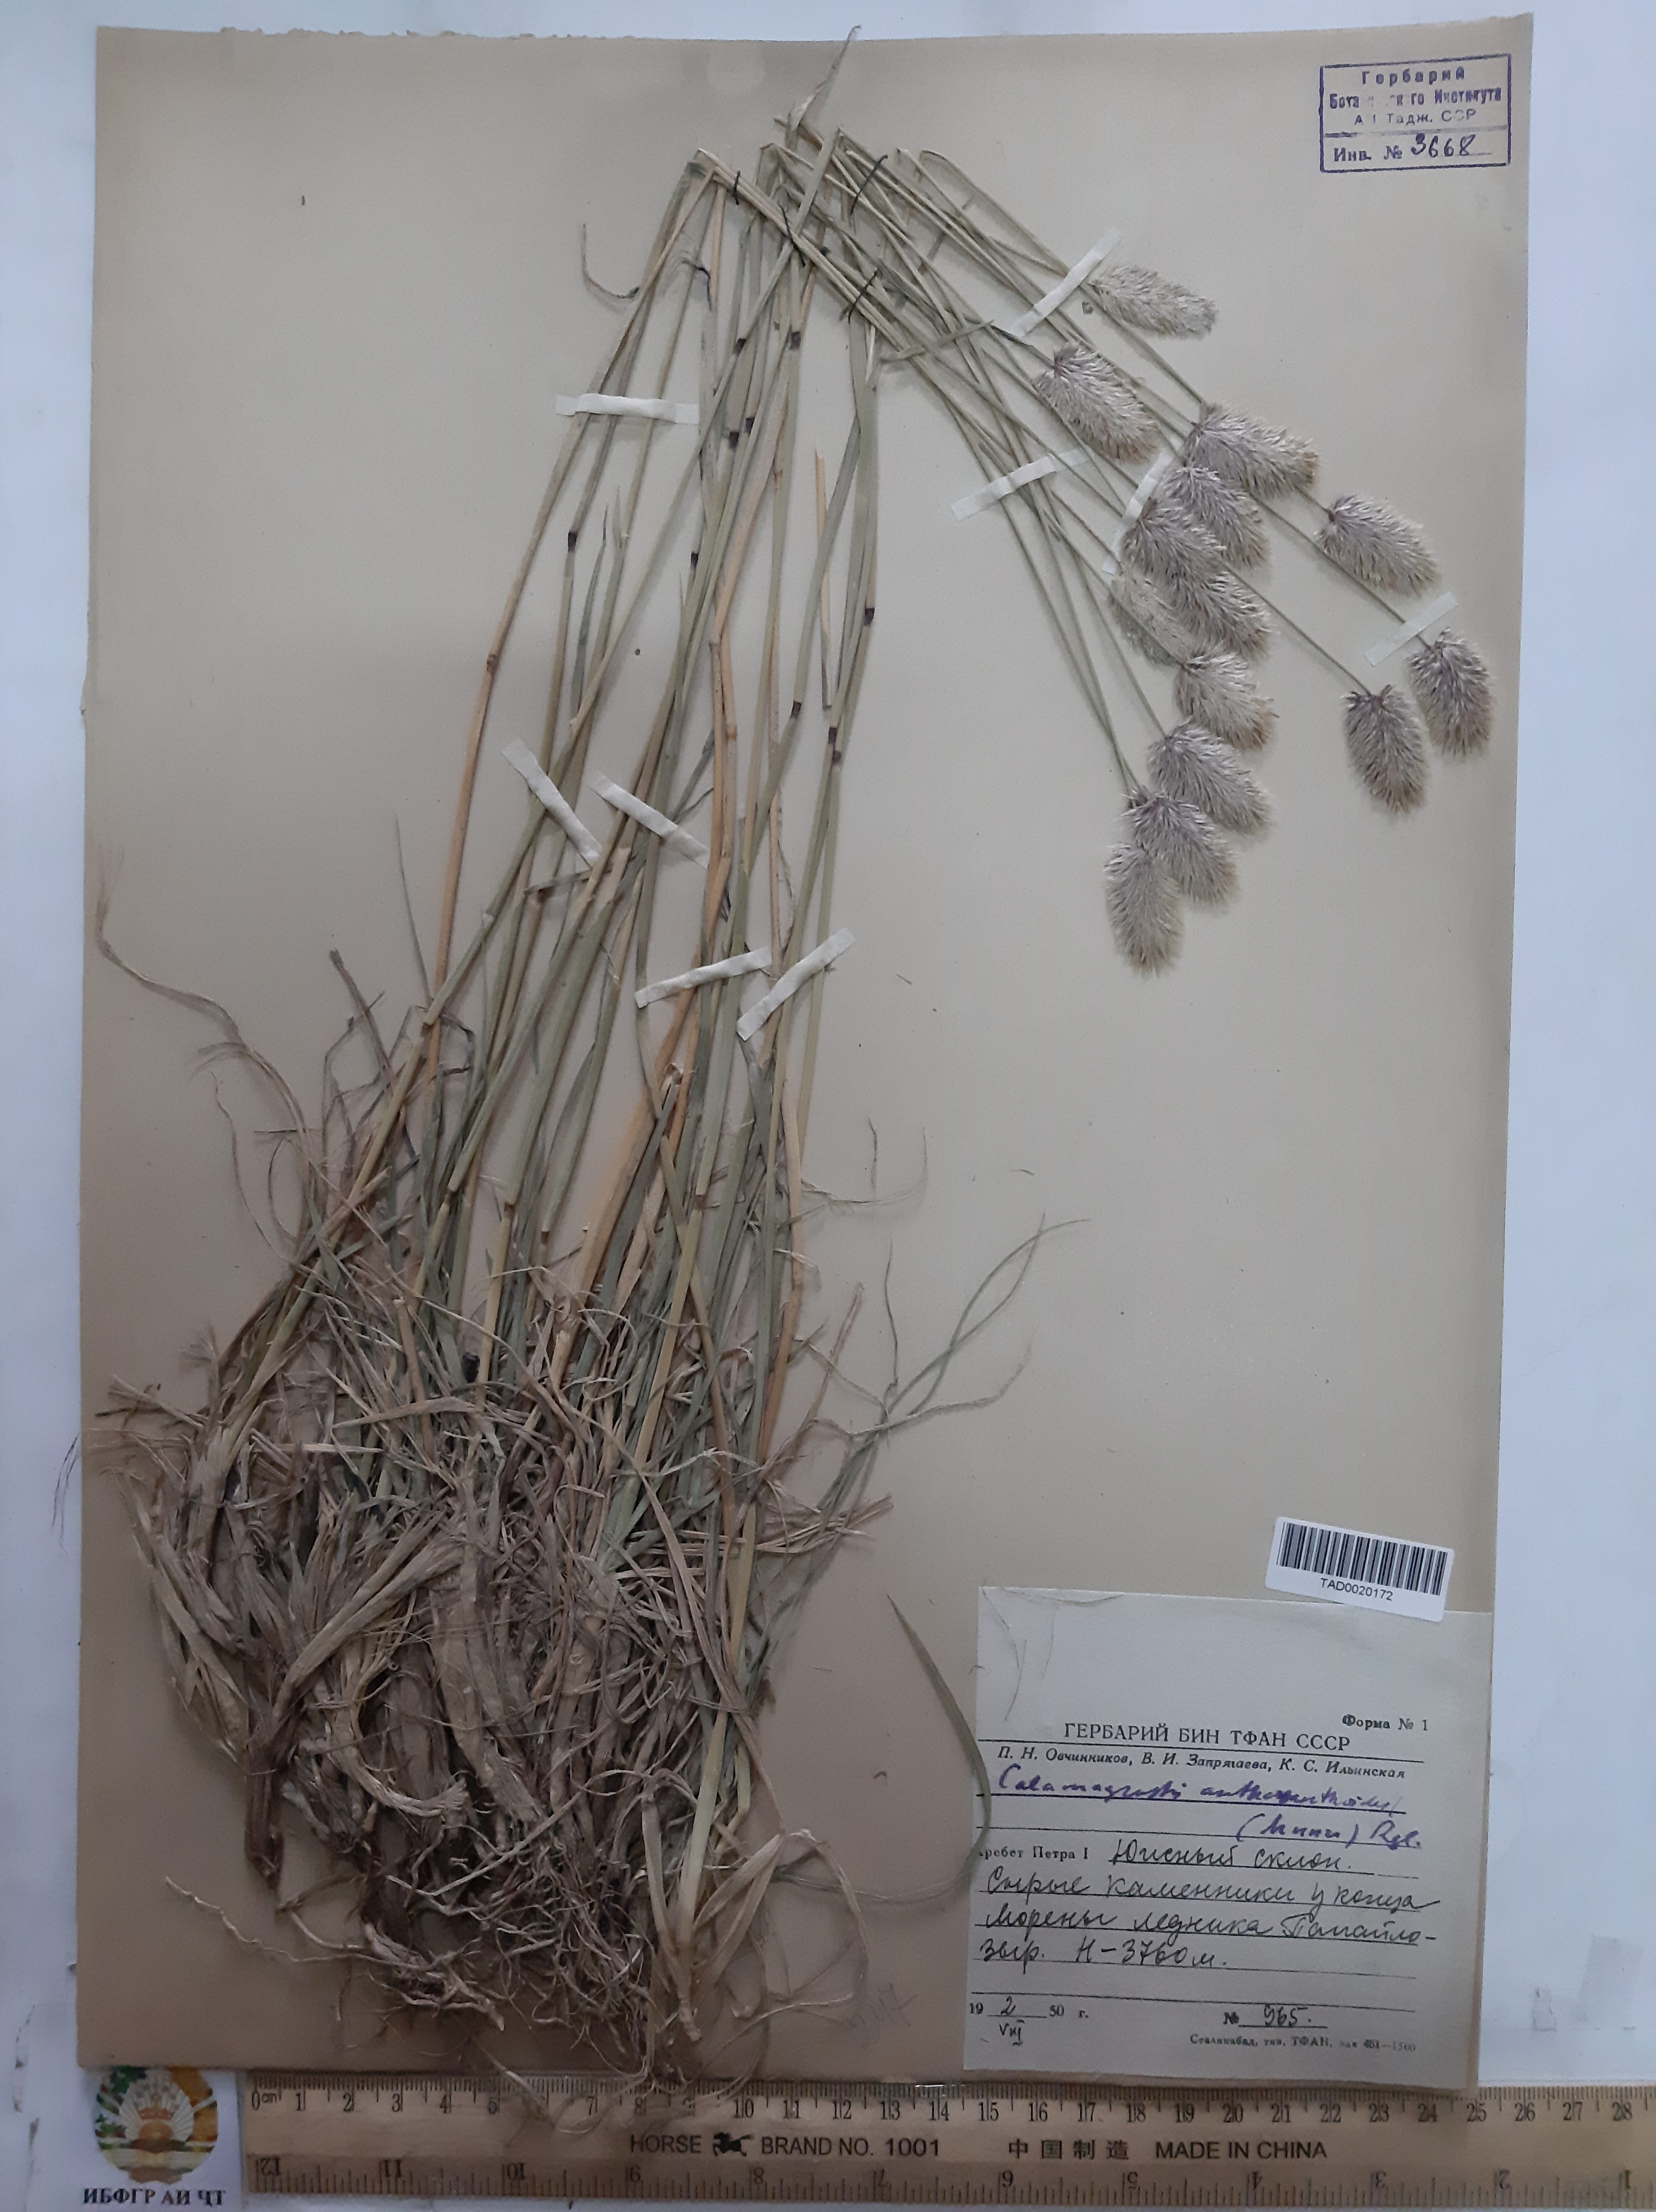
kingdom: Plantae
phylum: Tracheophyta
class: Liliopsida
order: Poales
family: Poaceae
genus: Calamagrostis
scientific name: Calamagrostis anthoxanthoides
